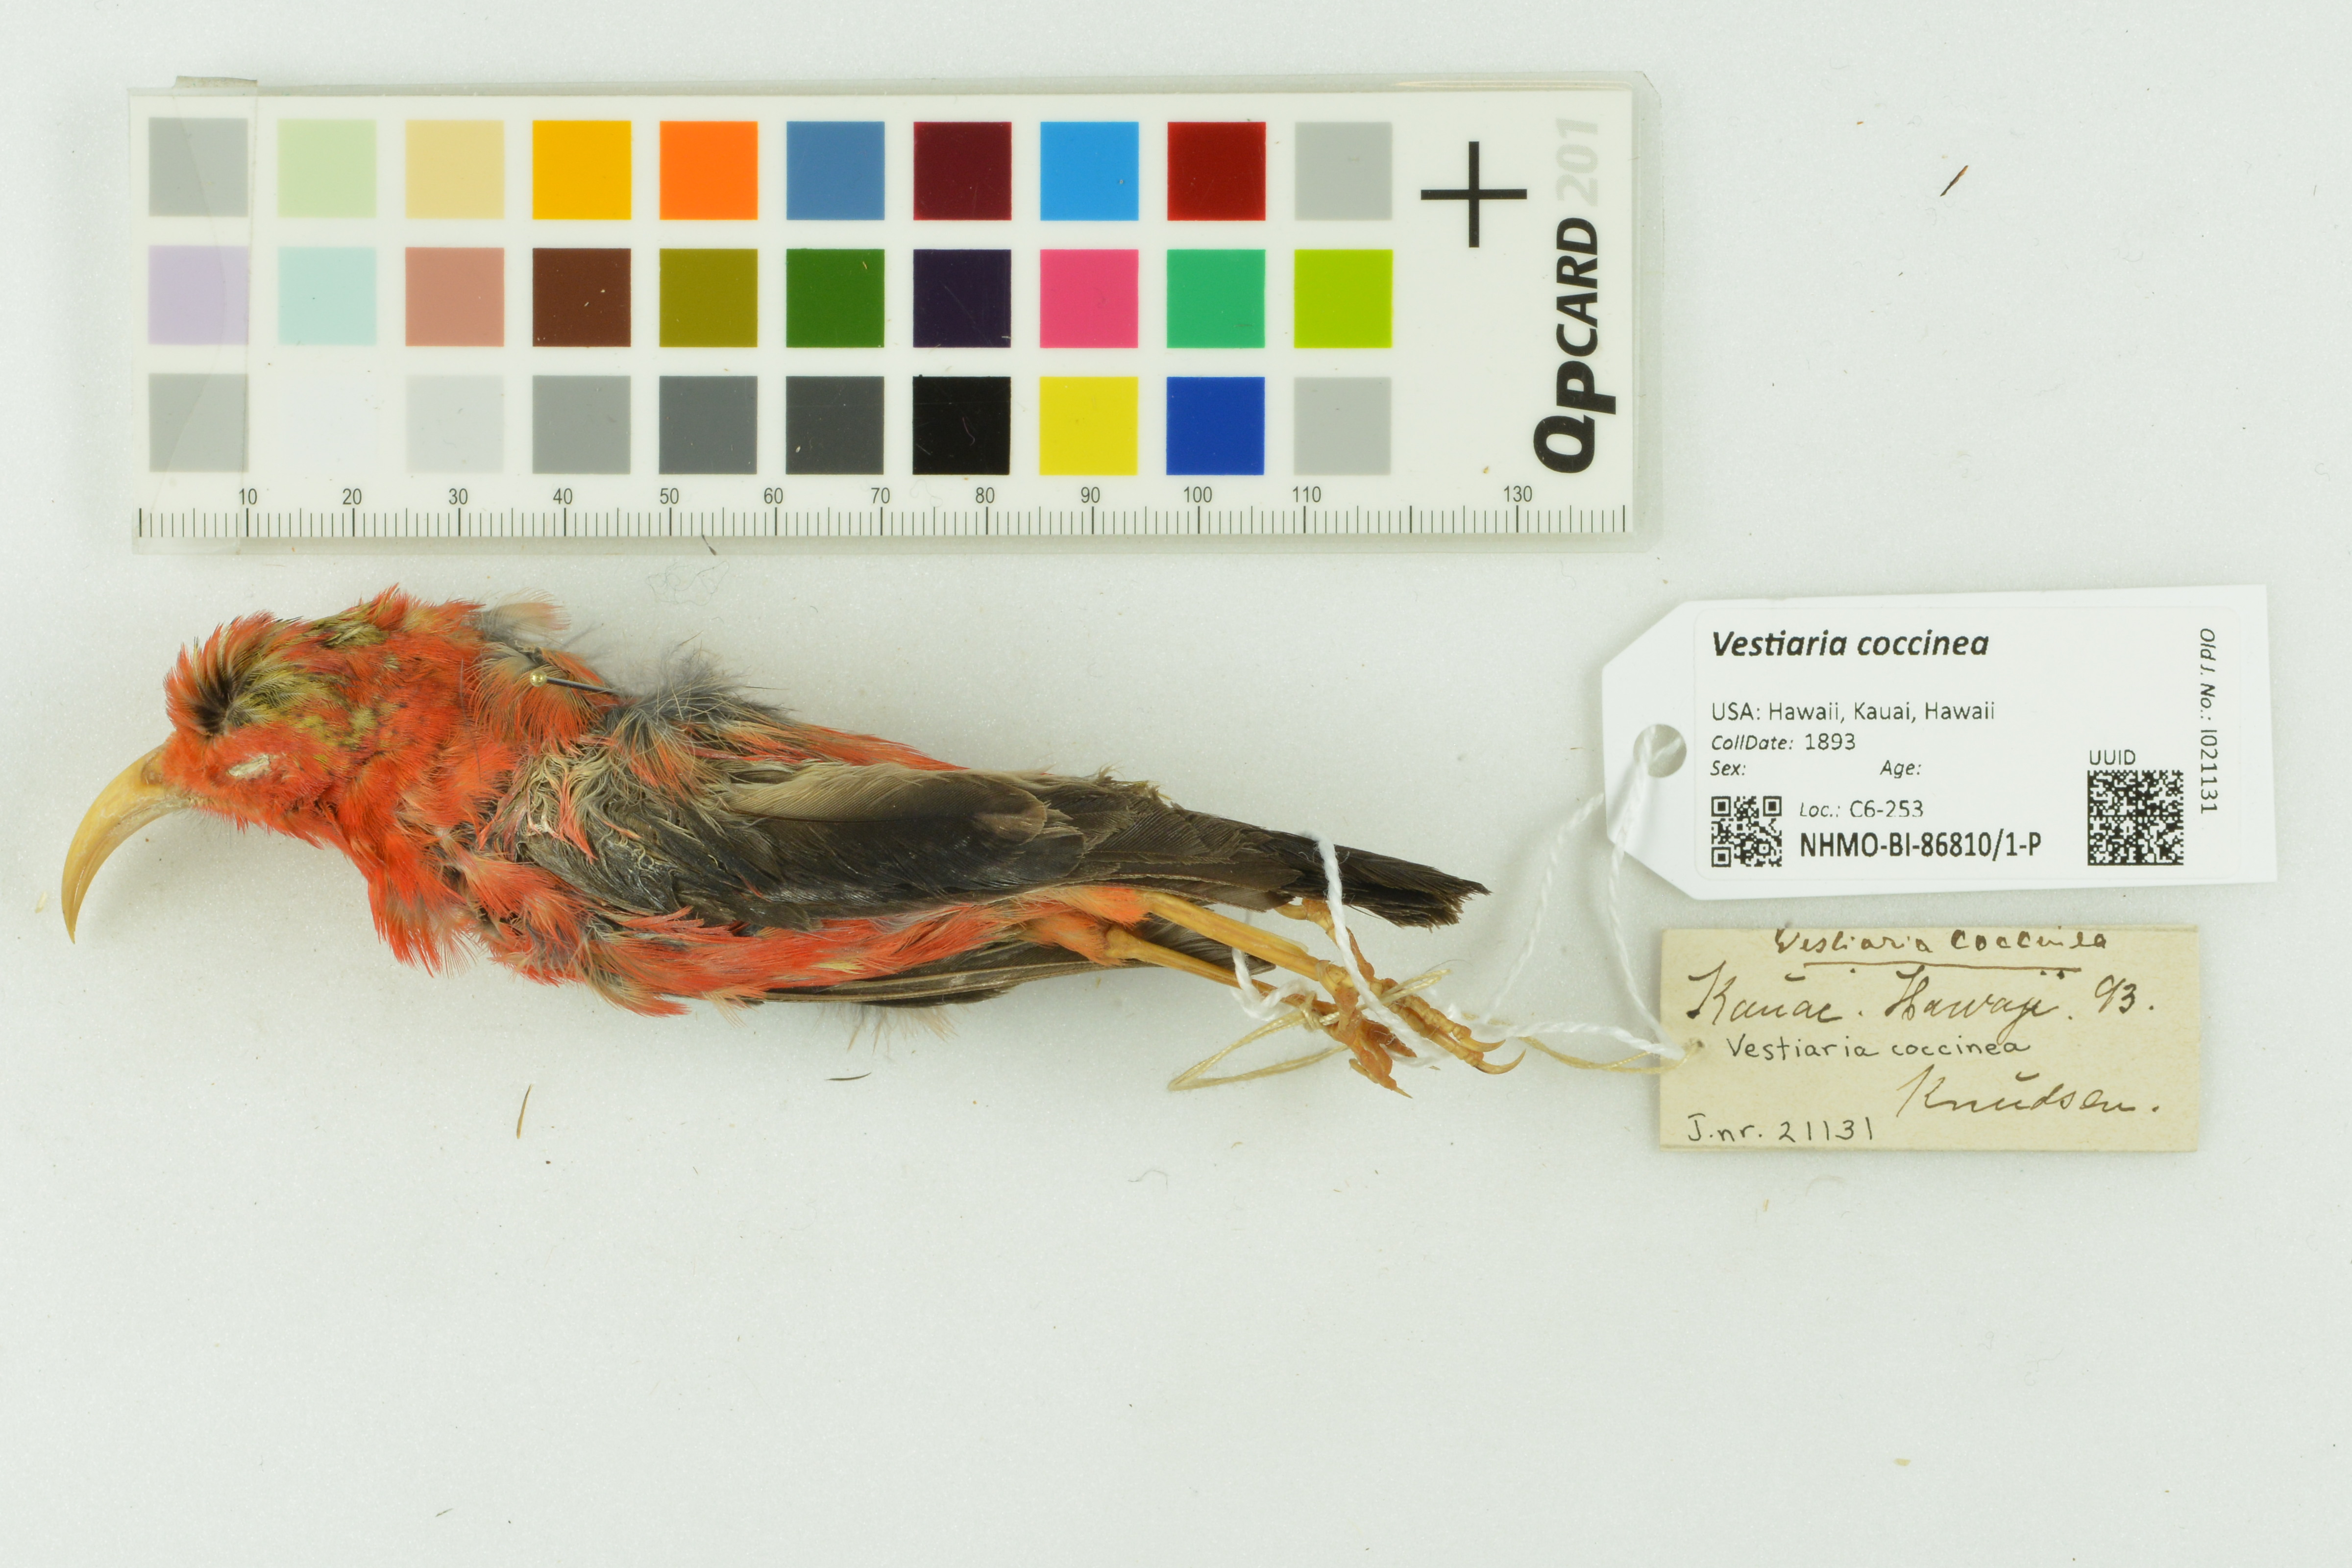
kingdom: Animalia
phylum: Chordata
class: Aves
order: Passeriformes
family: Fringillidae
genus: Vestiaria
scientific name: Vestiaria coccinea
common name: Iiwi
